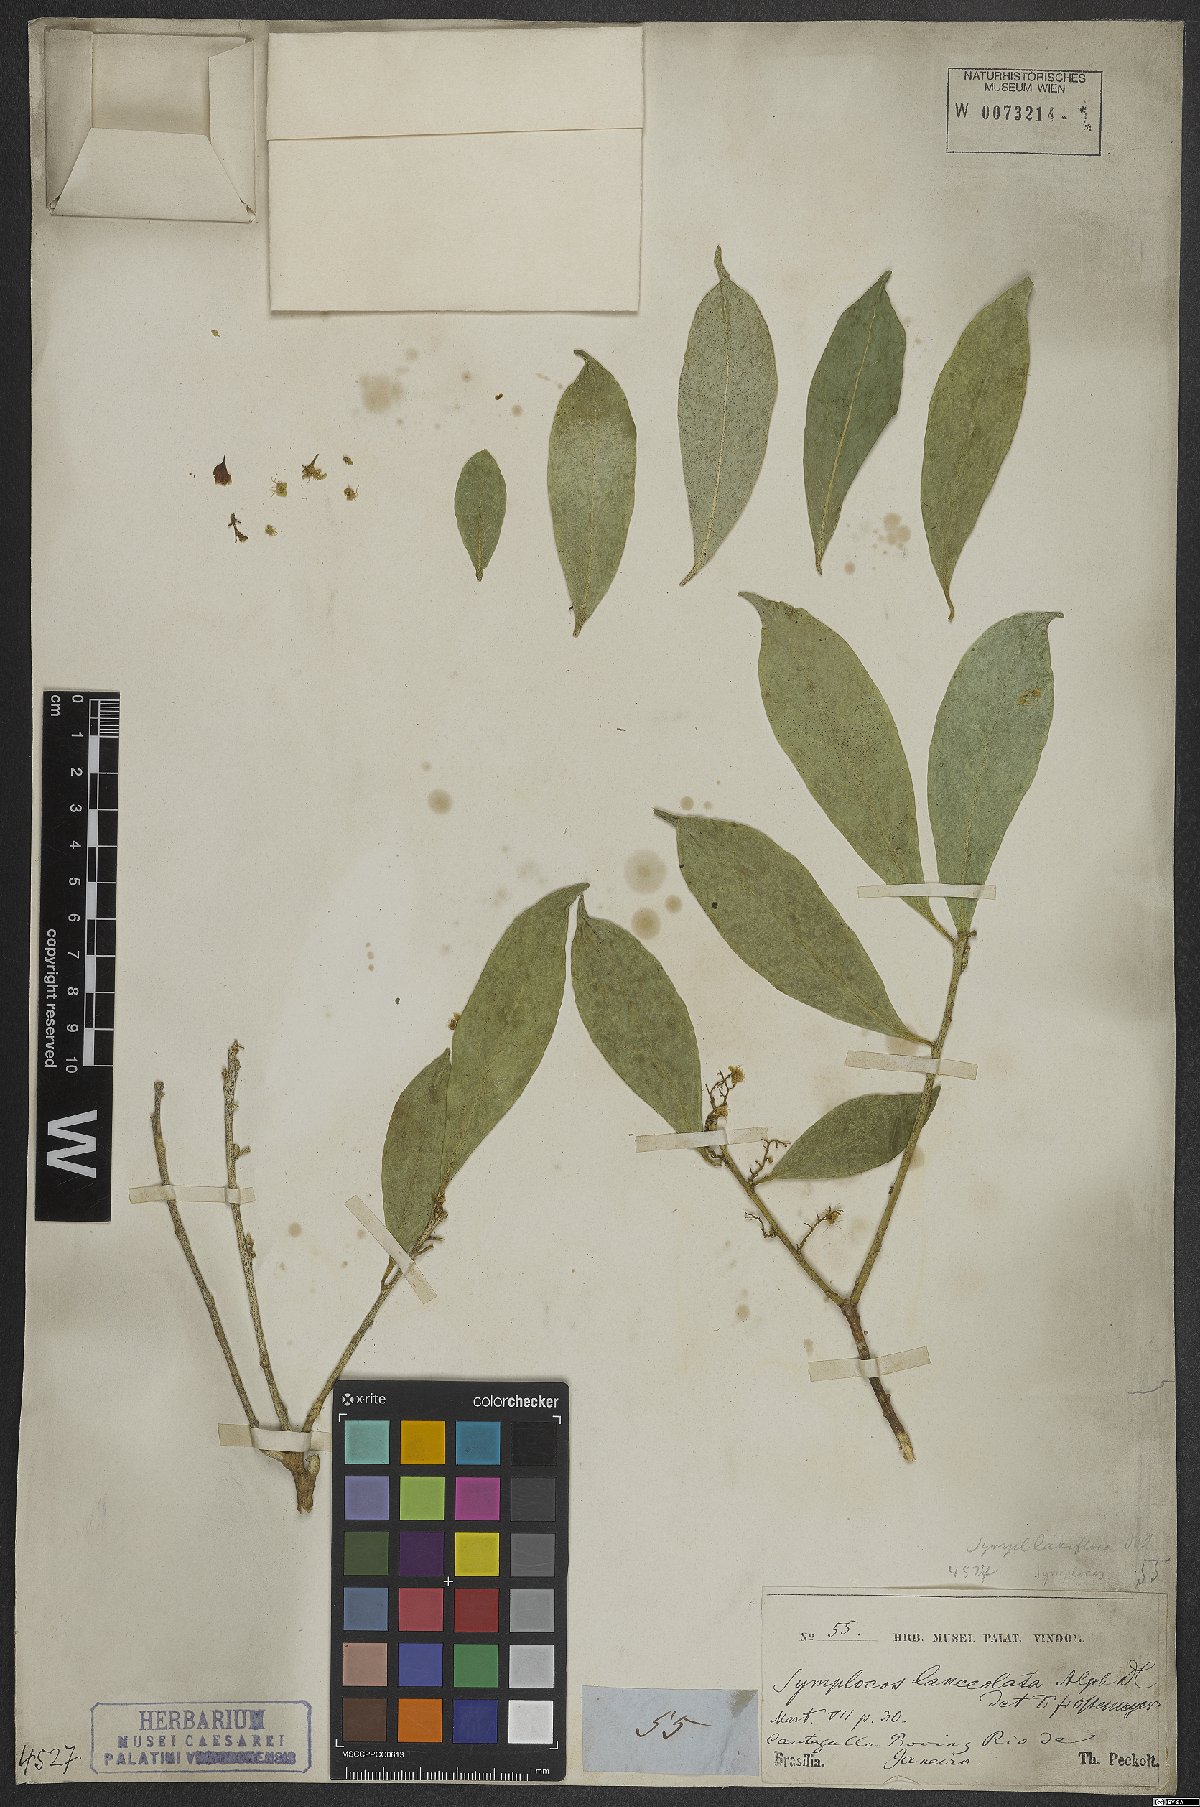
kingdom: Plantae
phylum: Tracheophyta
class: Magnoliopsida
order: Ericales
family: Symplocaceae
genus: Symplocos
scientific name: Symplocos oblongifolia
